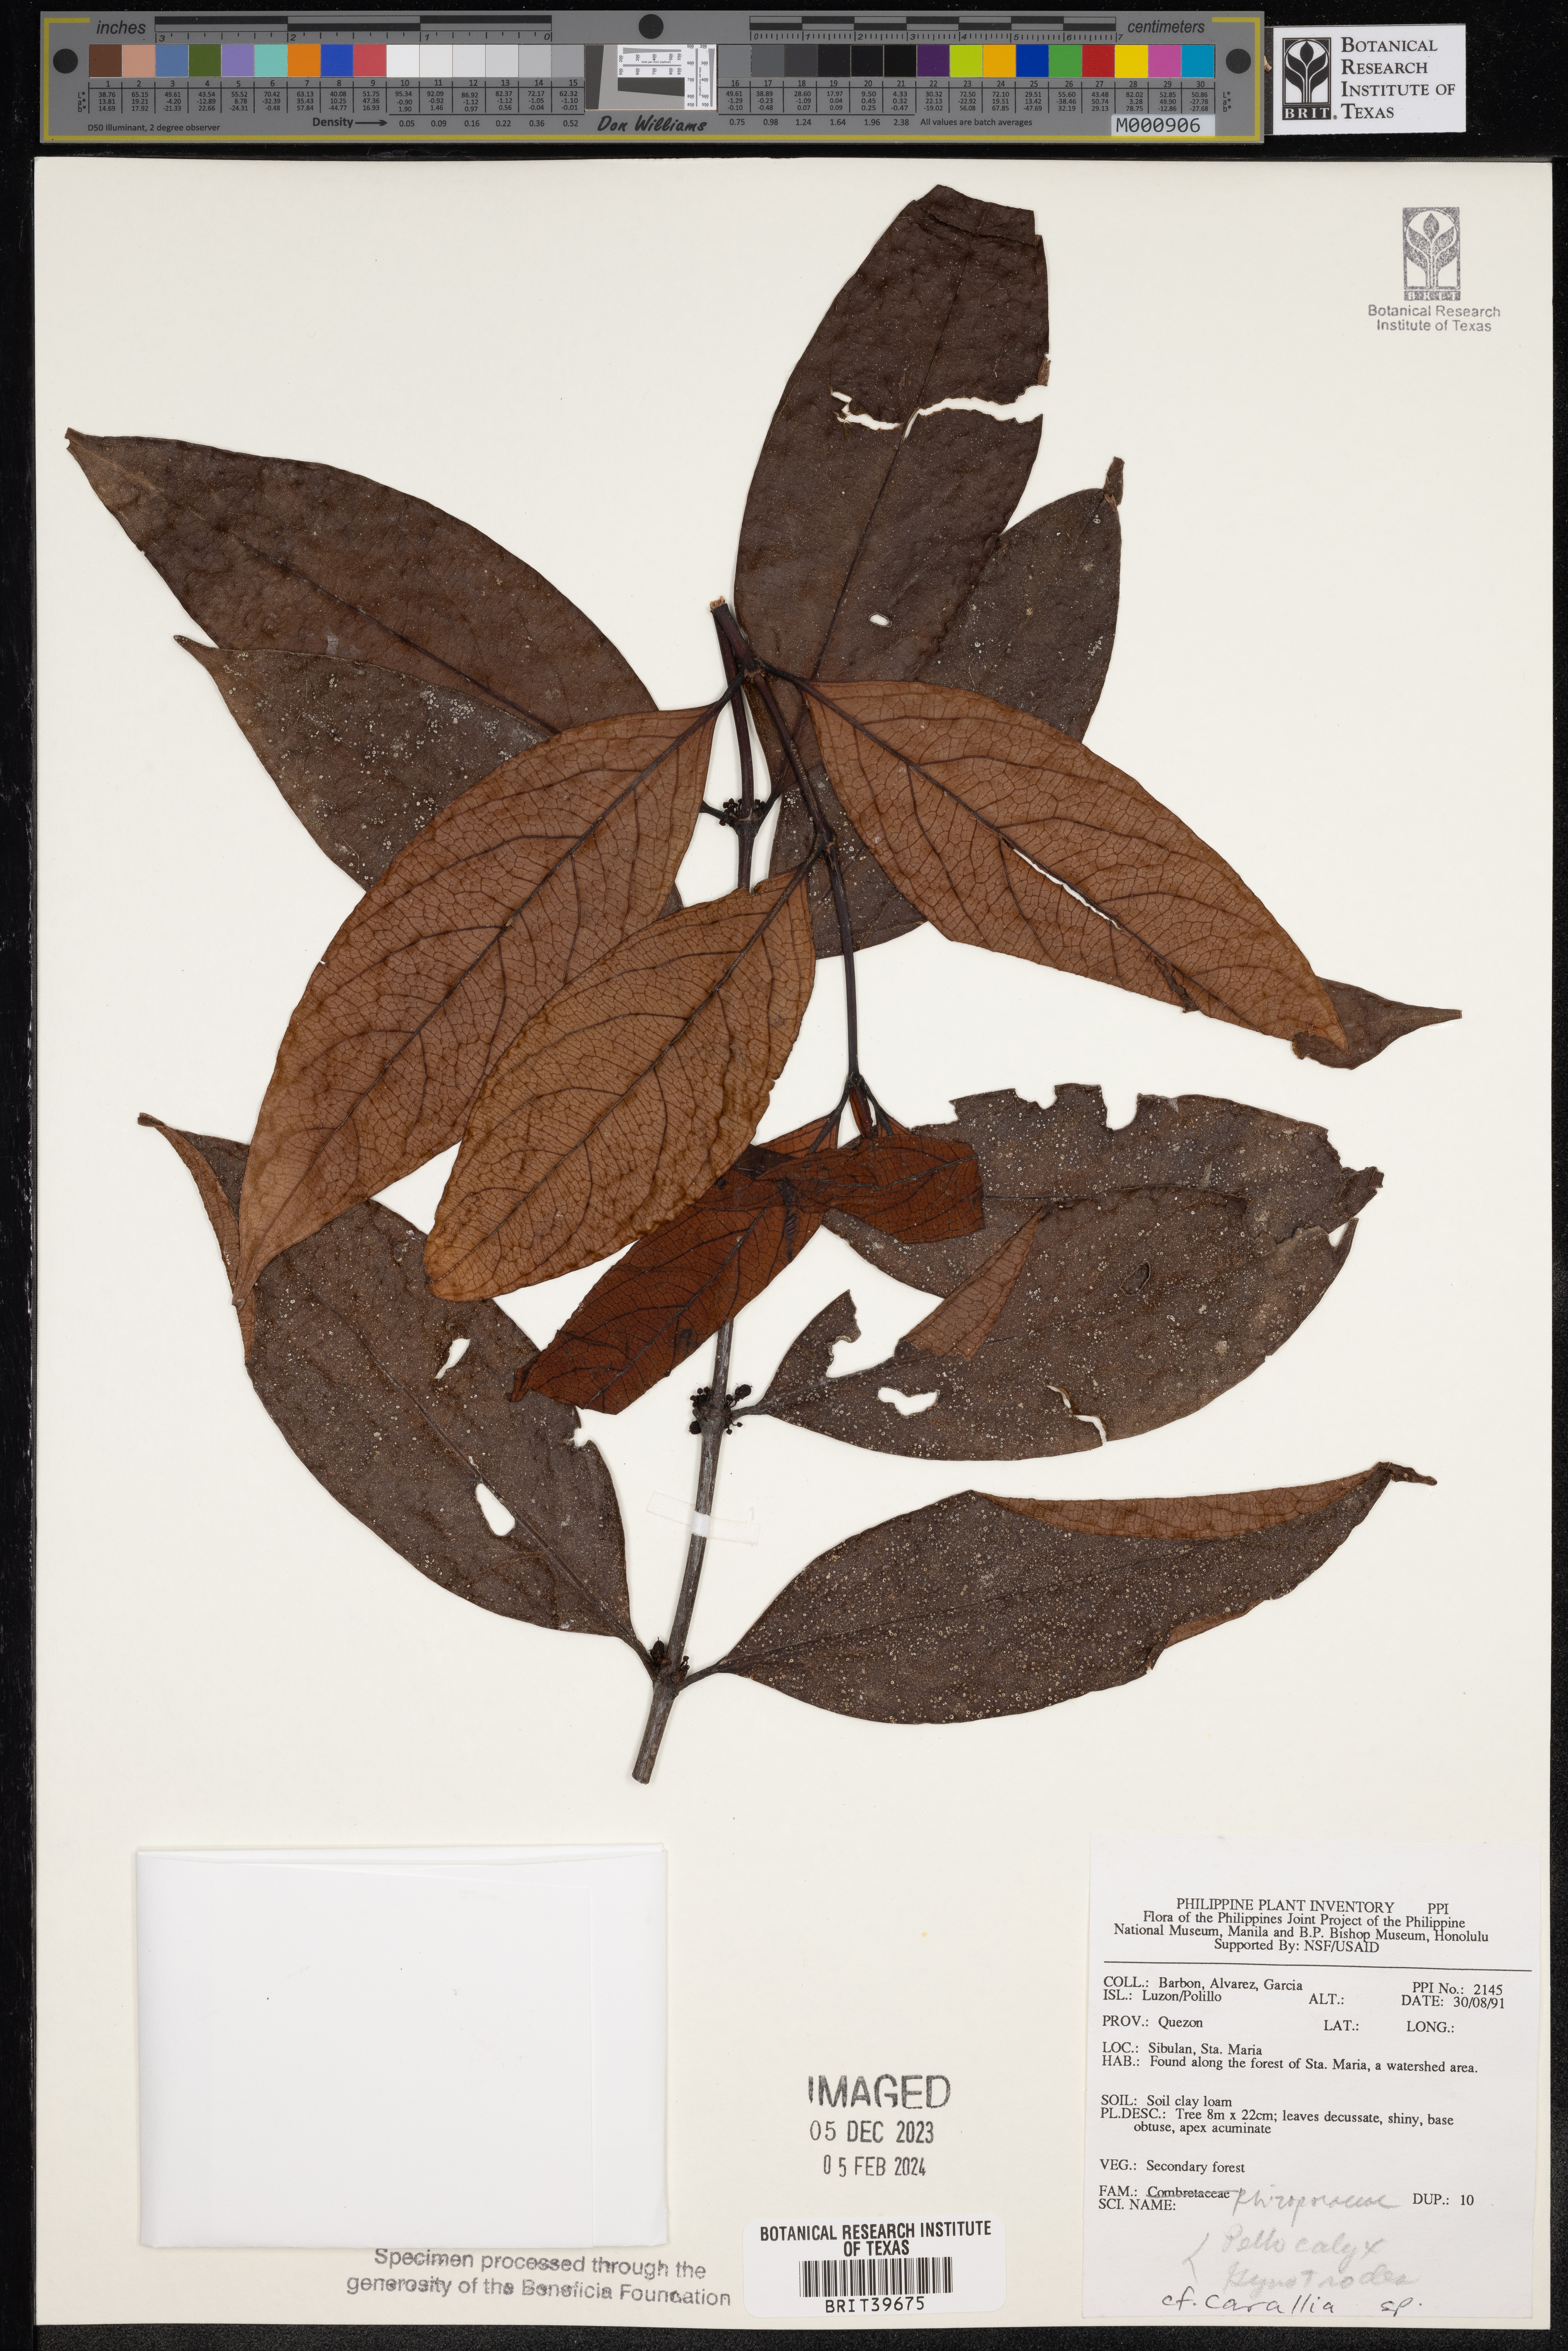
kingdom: Plantae
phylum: Tracheophyta
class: Magnoliopsida
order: Malpighiales
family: Rhizophoraceae
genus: Carallia
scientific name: Carallia
